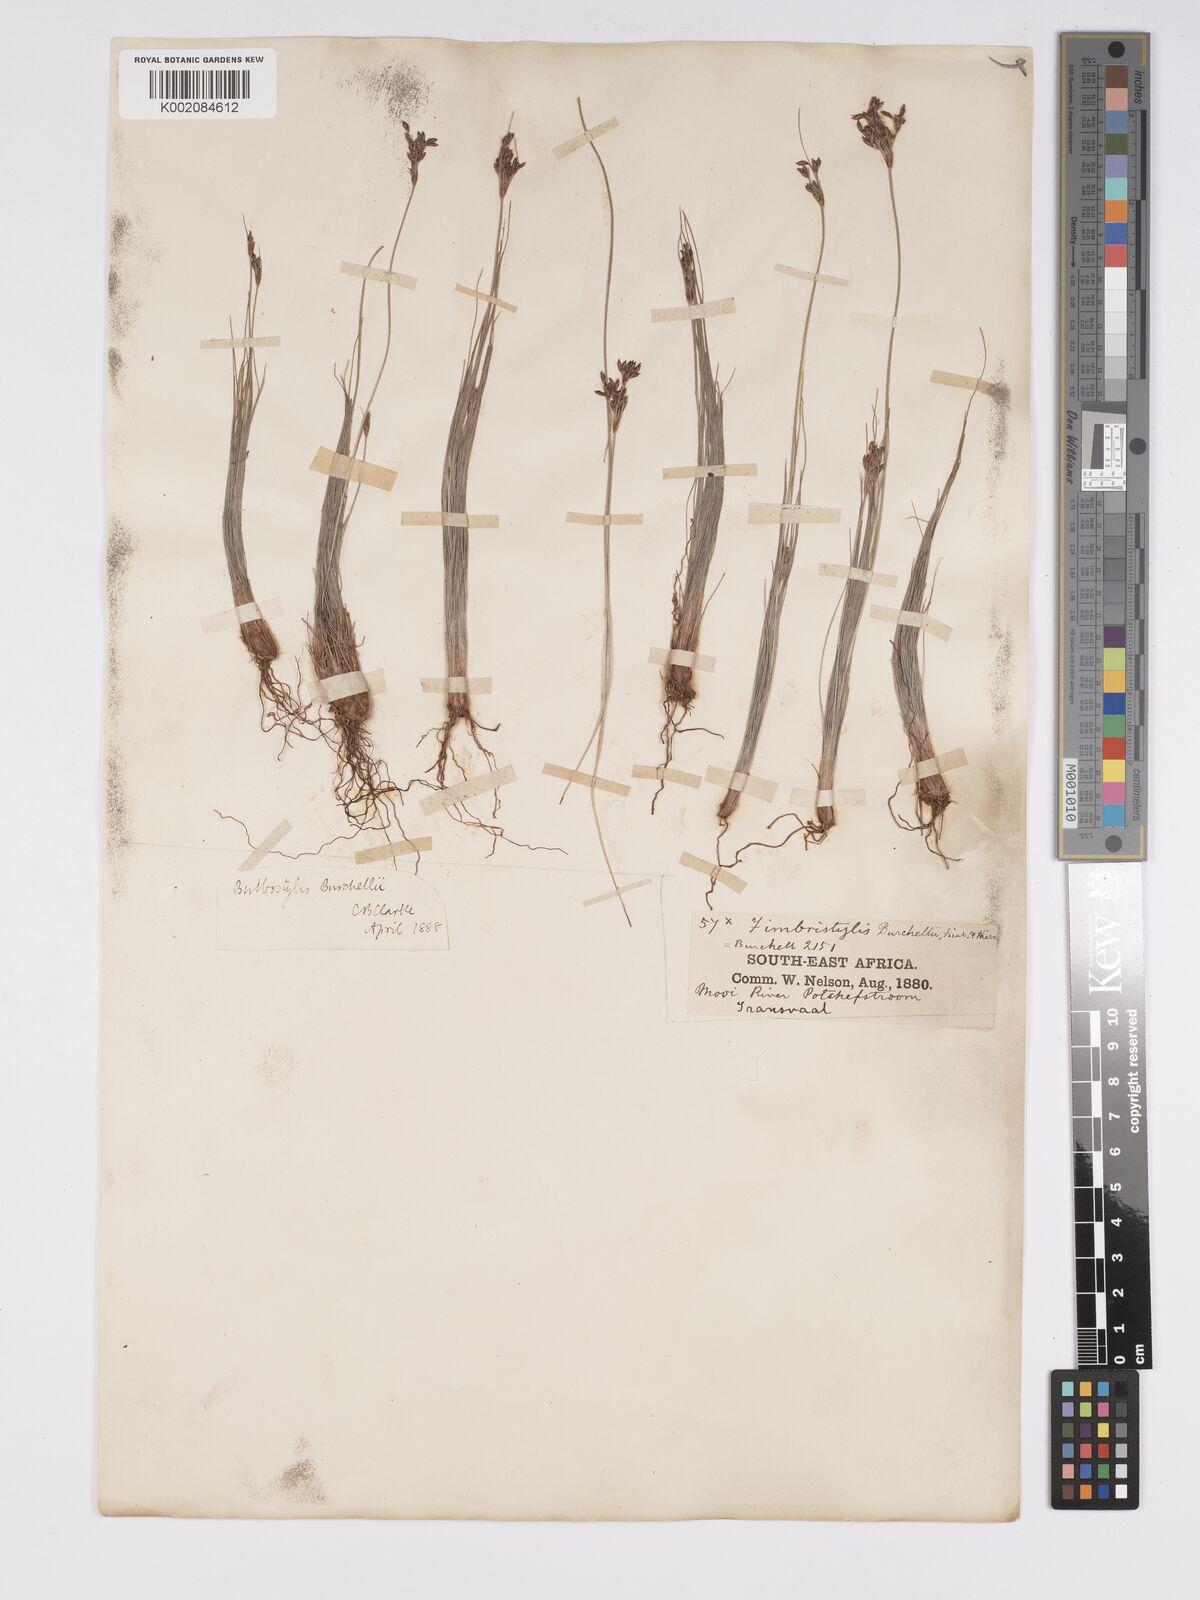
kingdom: Plantae
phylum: Tracheophyta
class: Liliopsida
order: Poales
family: Cyperaceae
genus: Bulbostylis
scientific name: Bulbostylis burchellii
